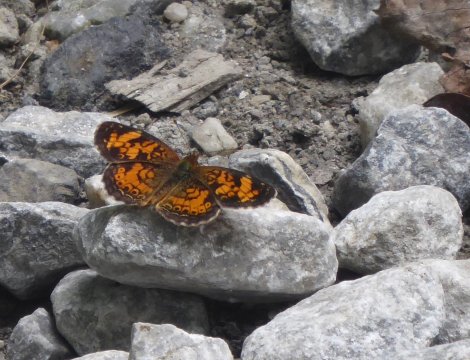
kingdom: Animalia
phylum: Arthropoda
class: Insecta
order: Lepidoptera
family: Nymphalidae
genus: Phyciodes
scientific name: Phyciodes
